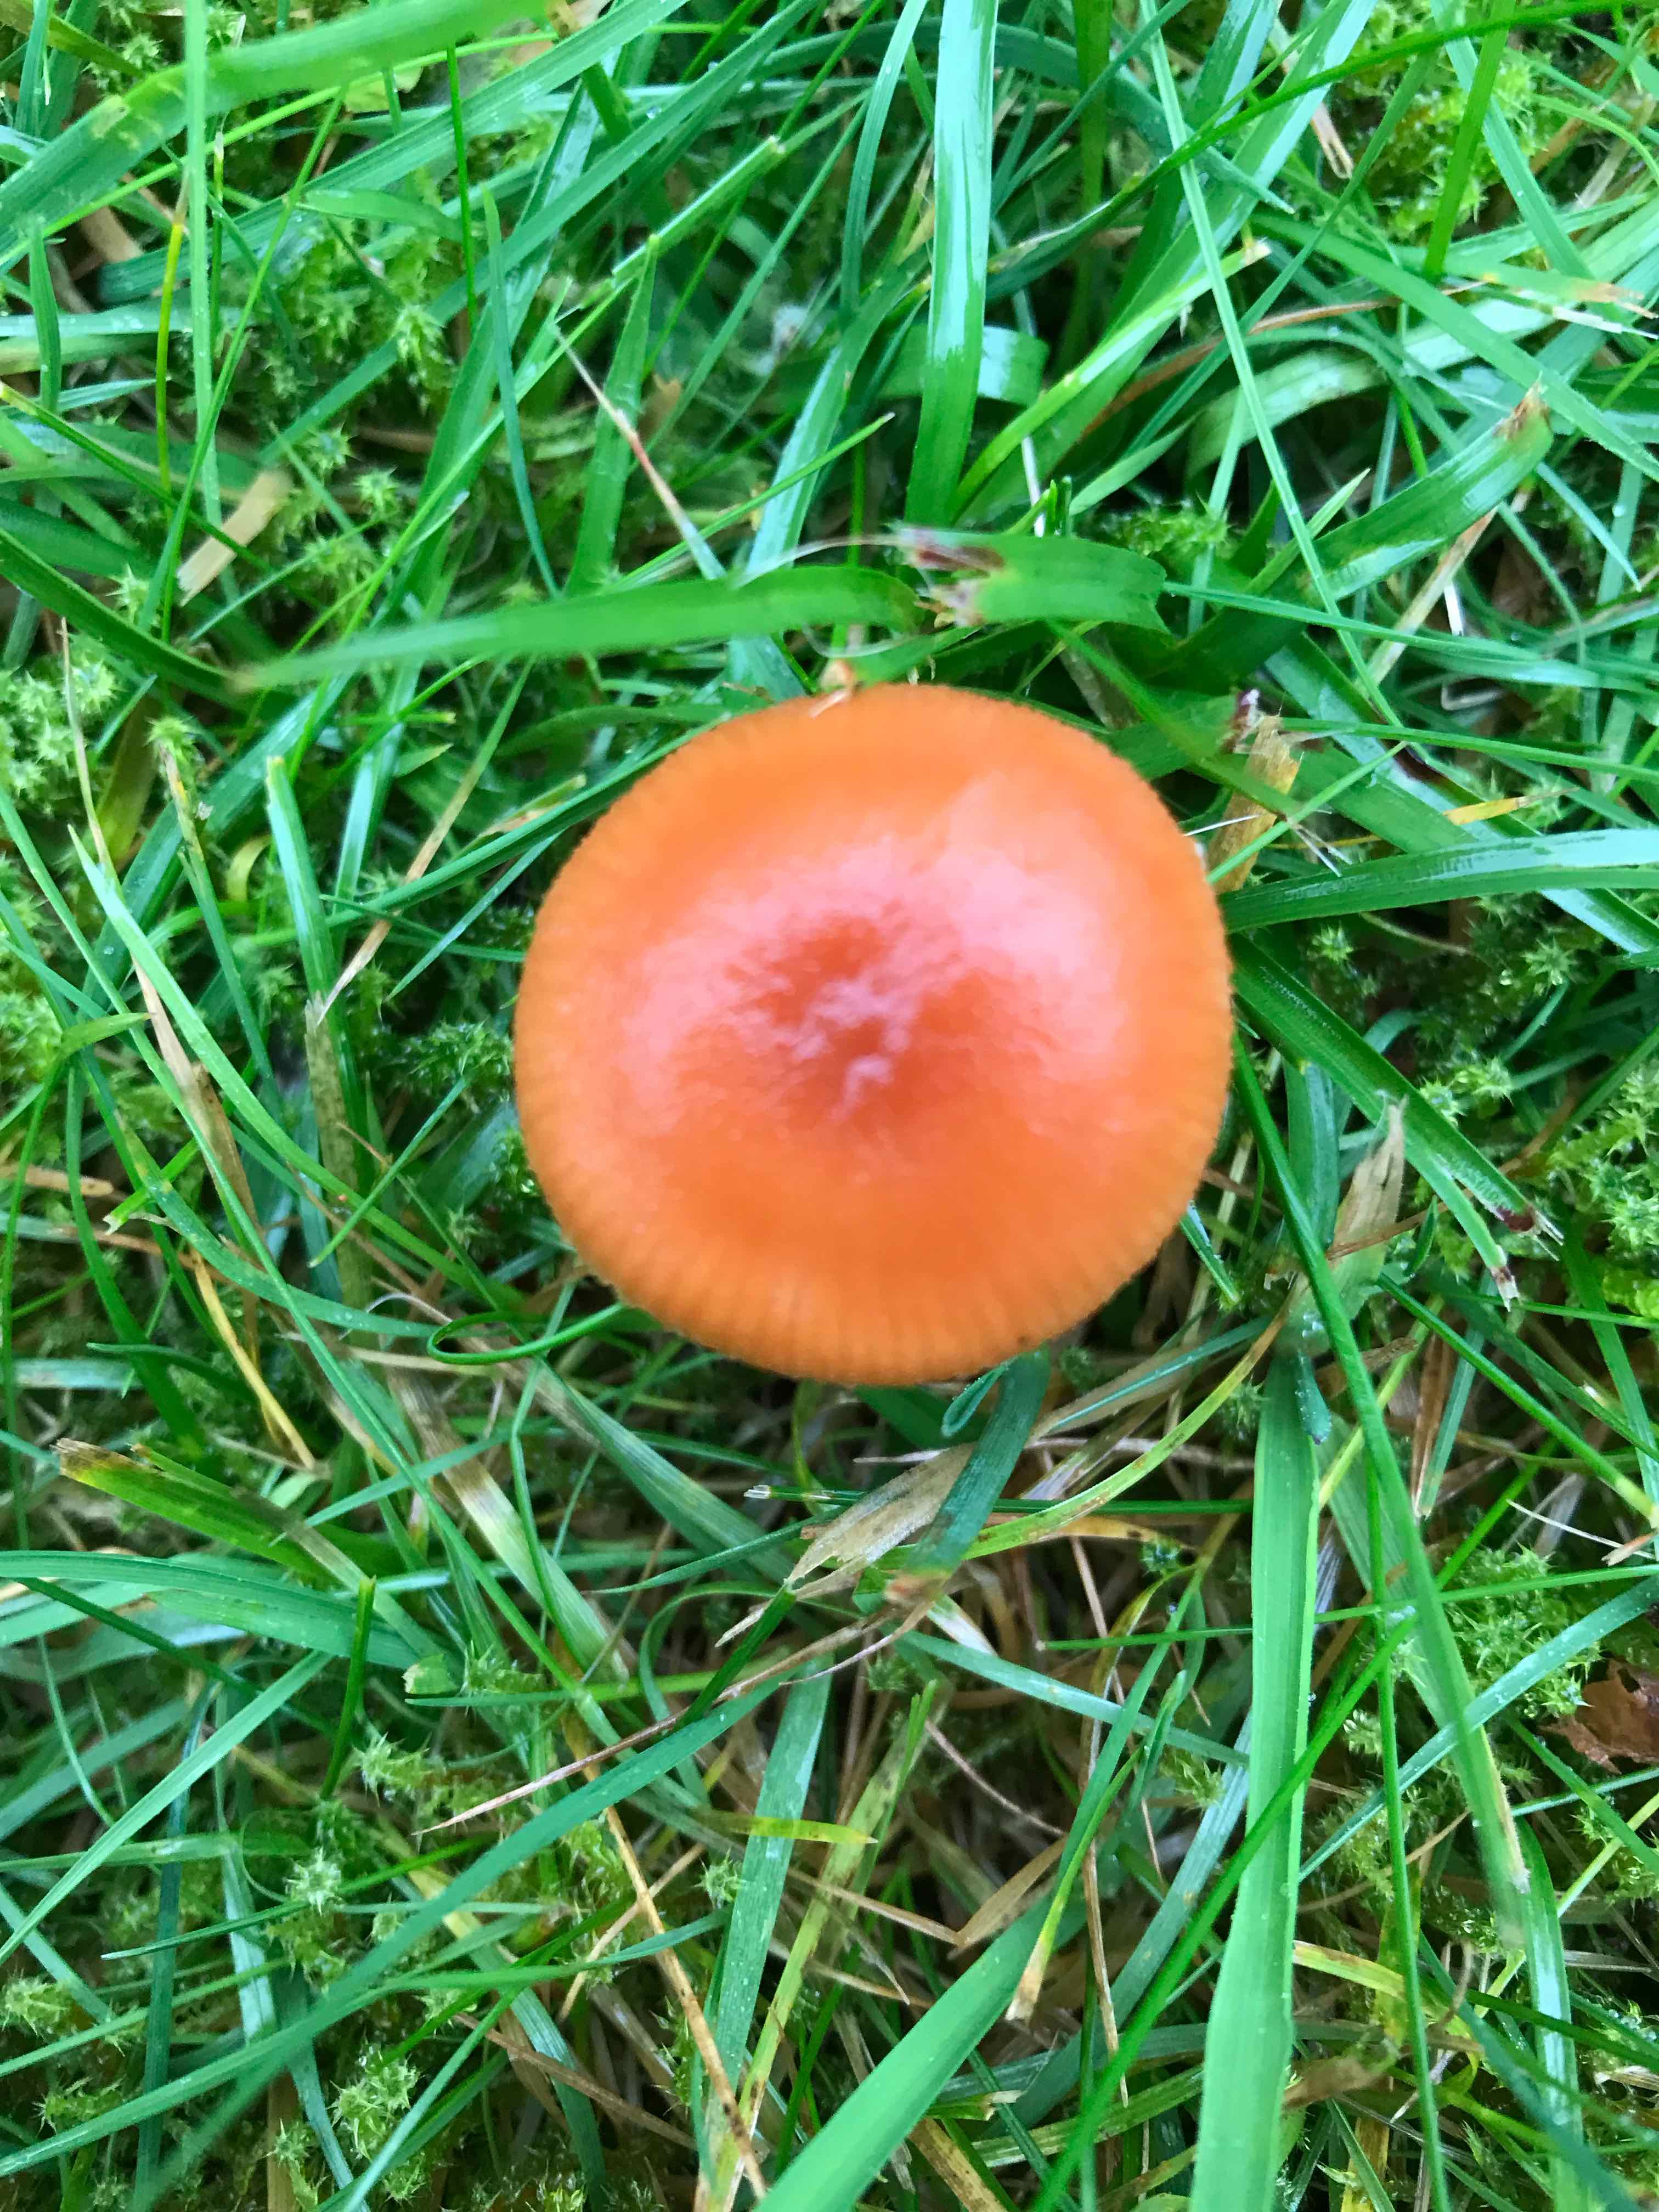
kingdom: Fungi
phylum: Basidiomycota
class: Agaricomycetes
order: Agaricales
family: Hydnangiaceae
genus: Laccaria
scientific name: Laccaria laccata
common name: rød ametysthat
